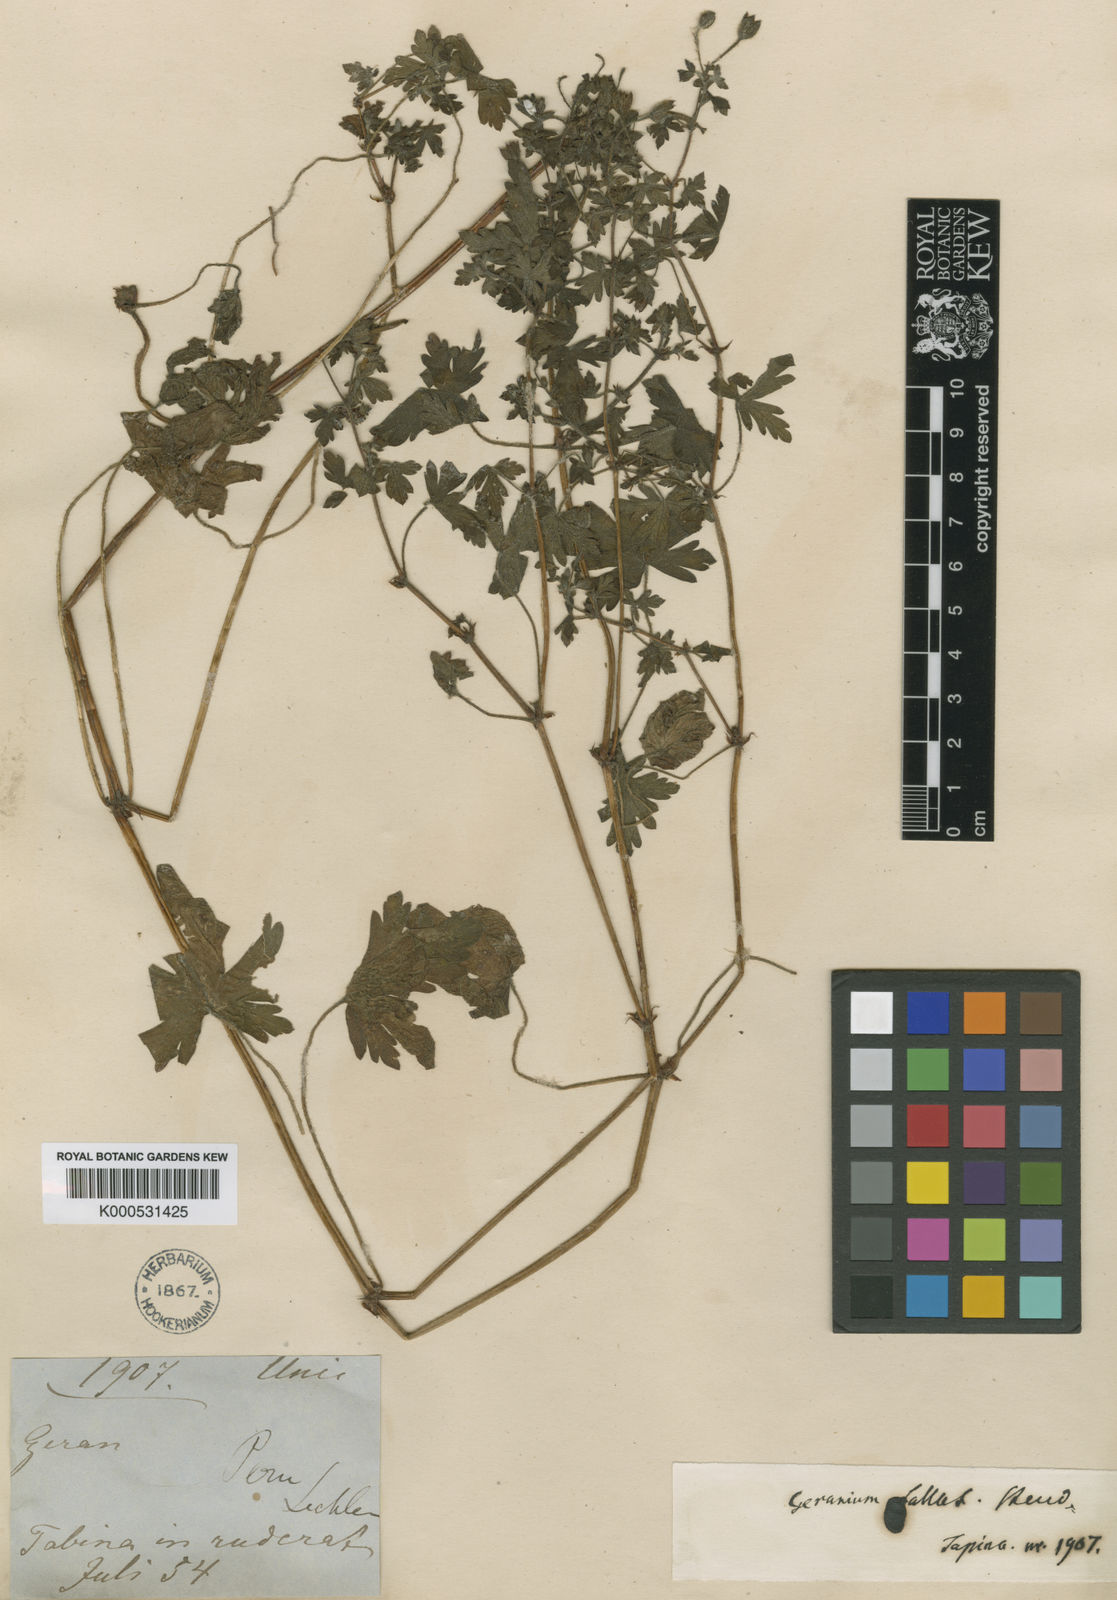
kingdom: Plantae
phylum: Tracheophyta
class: Magnoliopsida
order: Geraniales
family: Geraniaceae
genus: Geranium
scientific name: Geranium fallax
